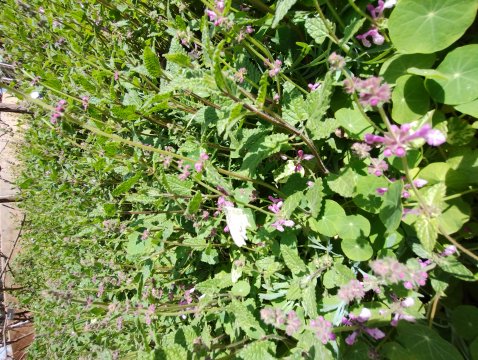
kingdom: Animalia
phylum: Arthropoda
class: Insecta
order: Lepidoptera
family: Pieridae
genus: Pieris
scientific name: Pieris rapae
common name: Cabbage White
